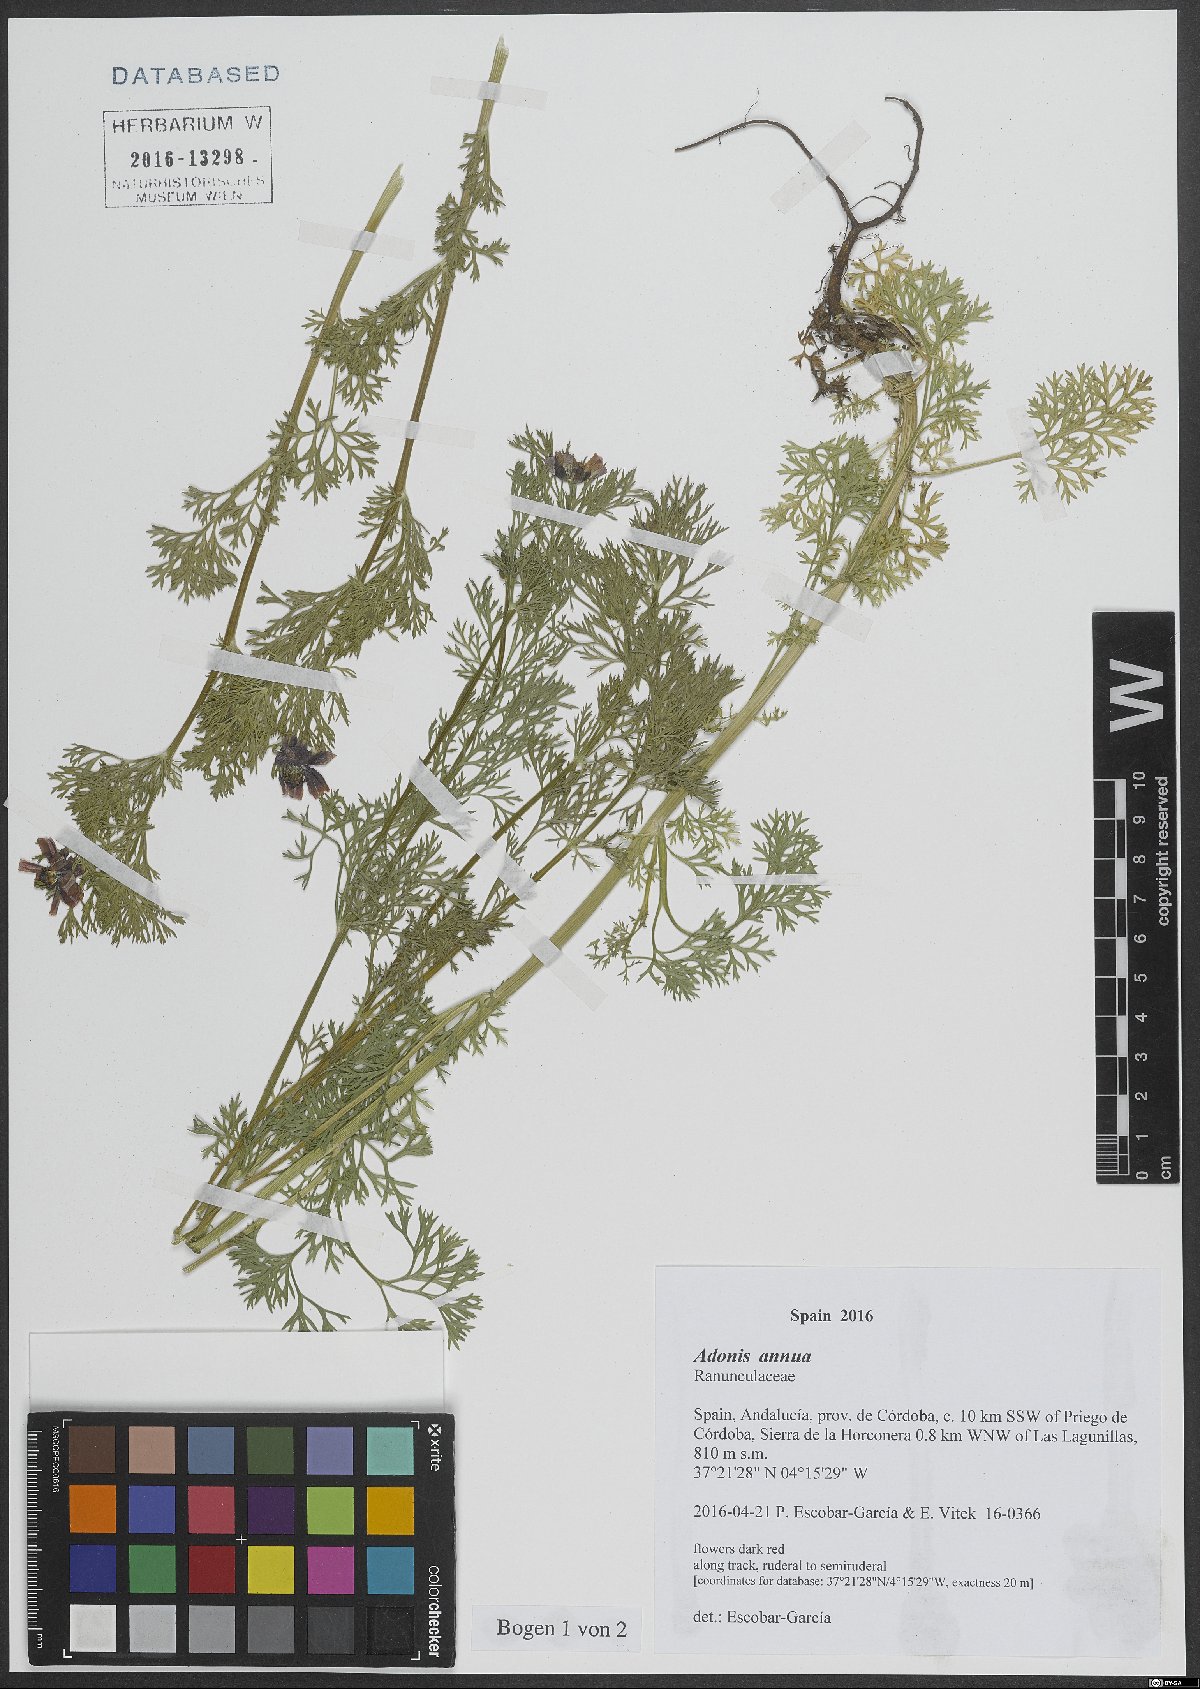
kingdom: Plantae
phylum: Tracheophyta
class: Magnoliopsida
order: Ranunculales
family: Ranunculaceae
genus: Adonis
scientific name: Adonis annua
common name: Pheasant's-eye
